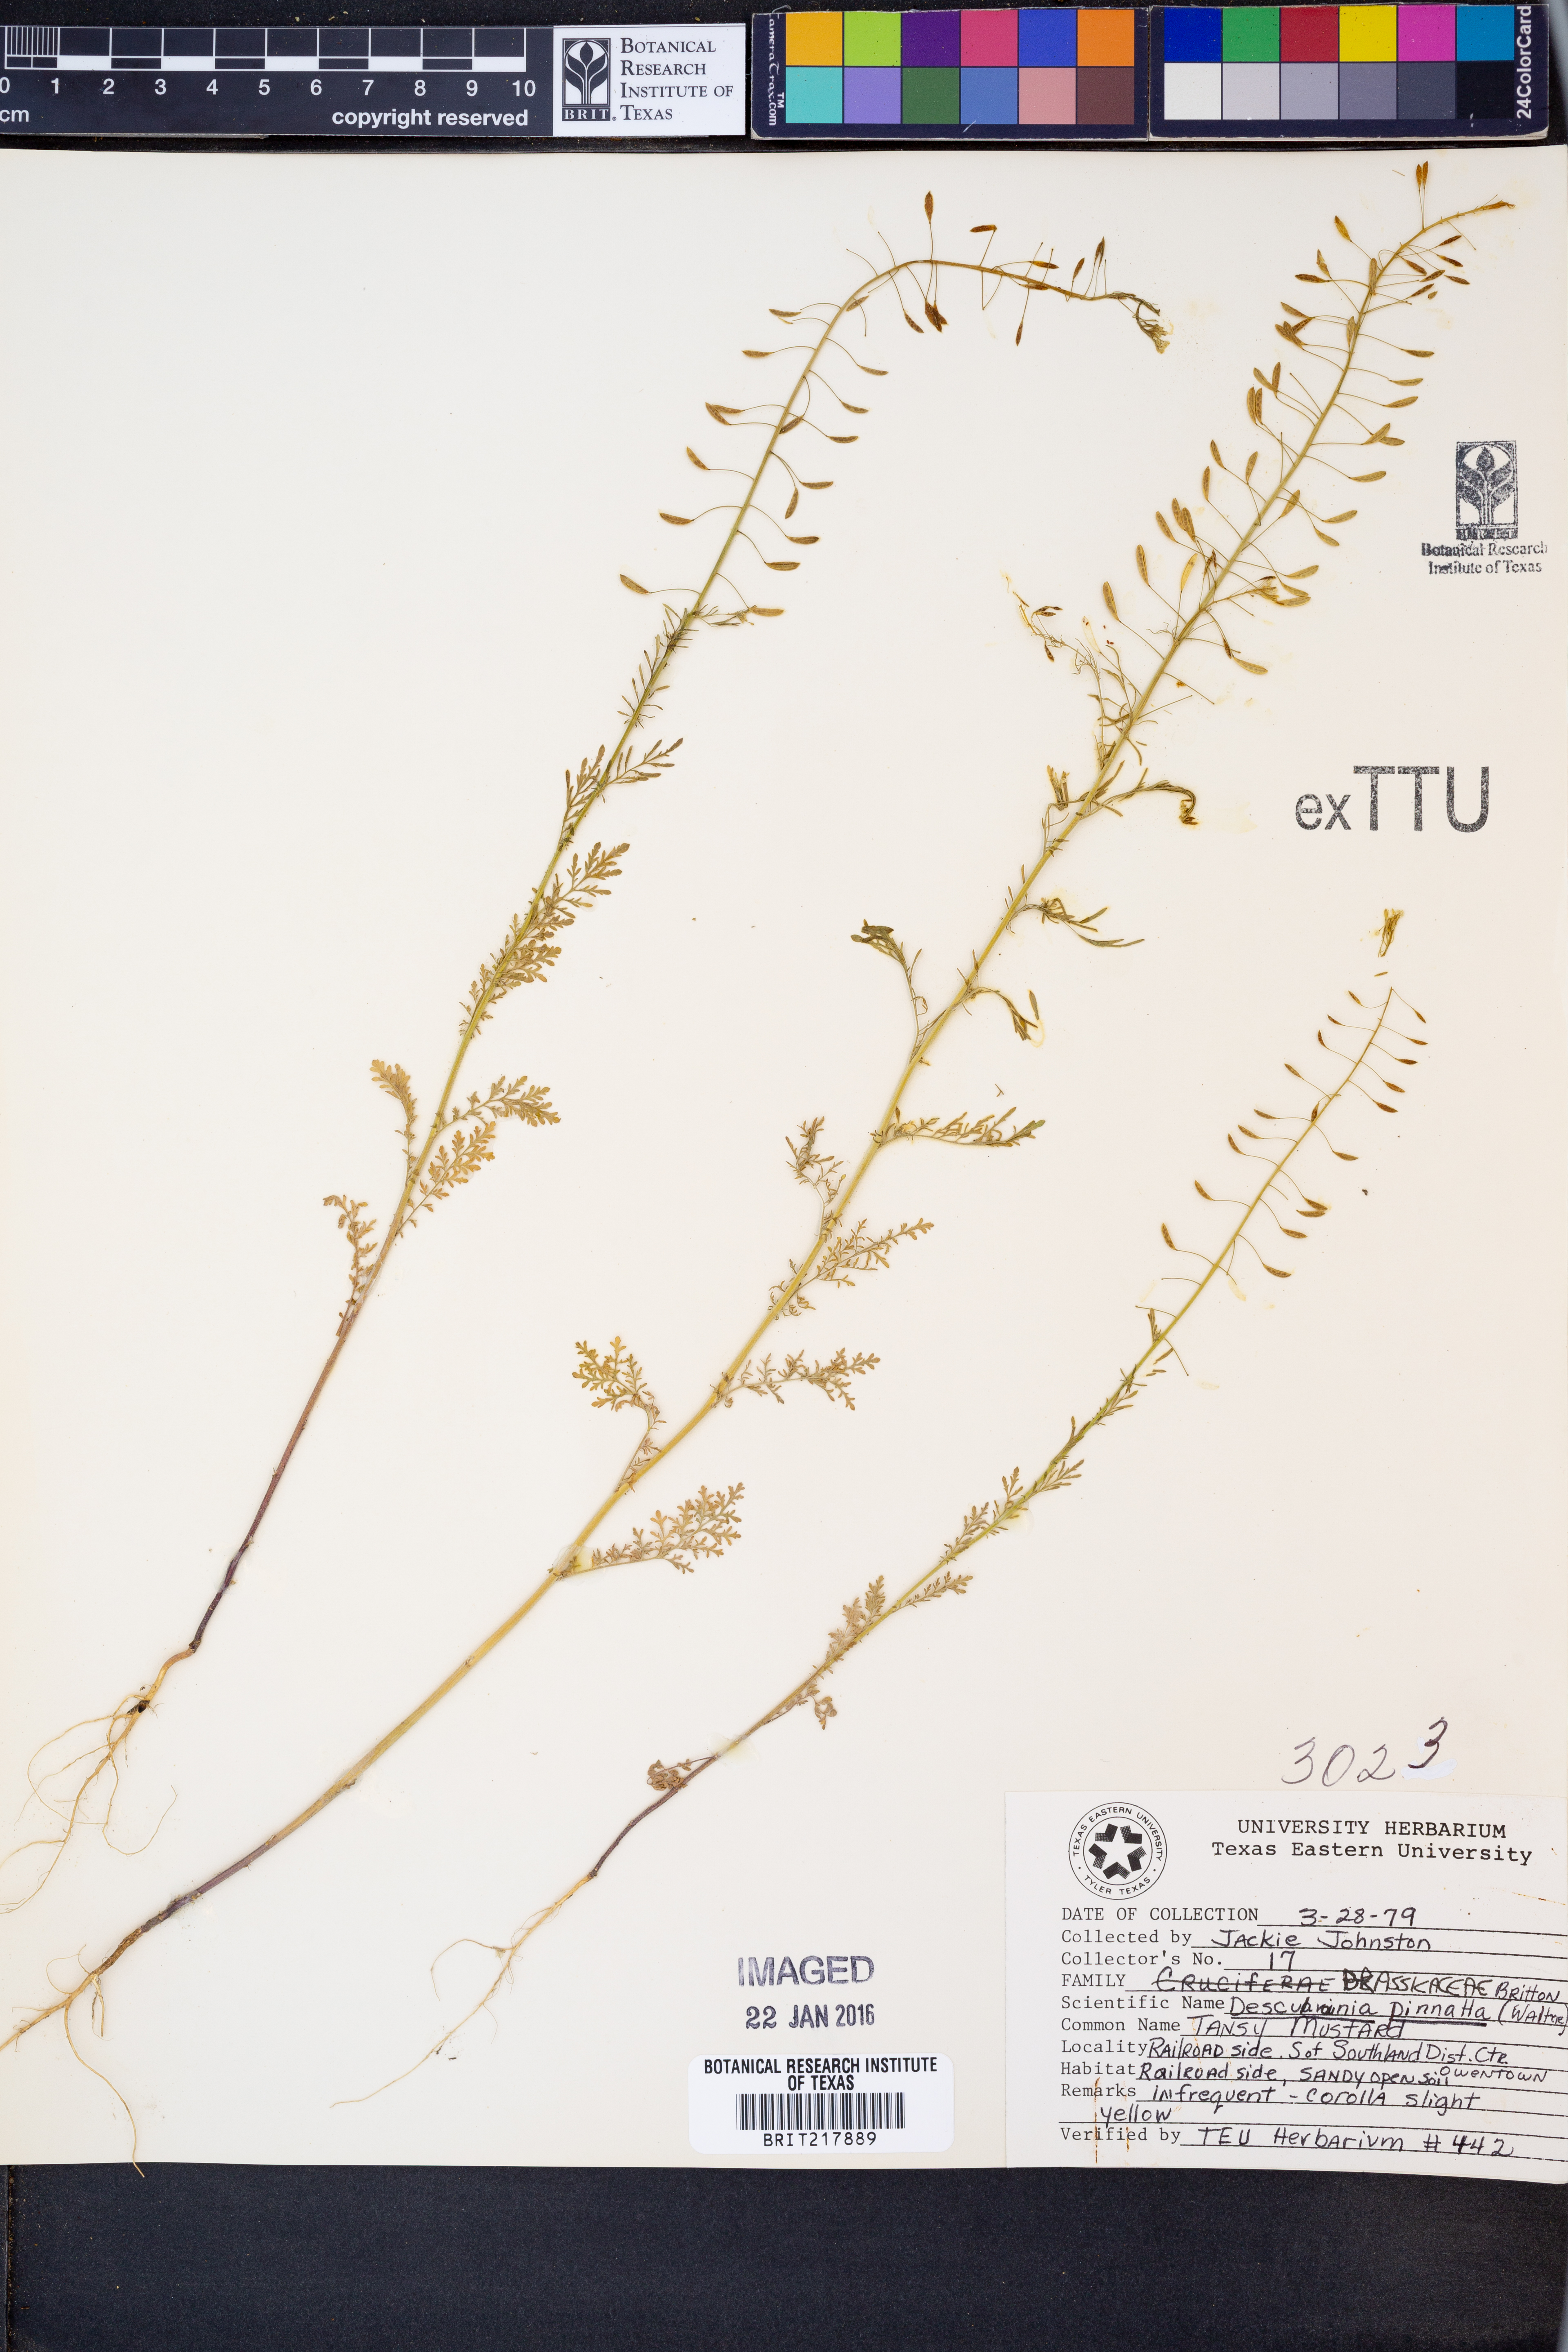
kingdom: Plantae
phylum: Tracheophyta
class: Magnoliopsida
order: Brassicales
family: Brassicaceae
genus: Descurainia
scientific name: Descurainia pinnata
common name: Western tansy mustard
